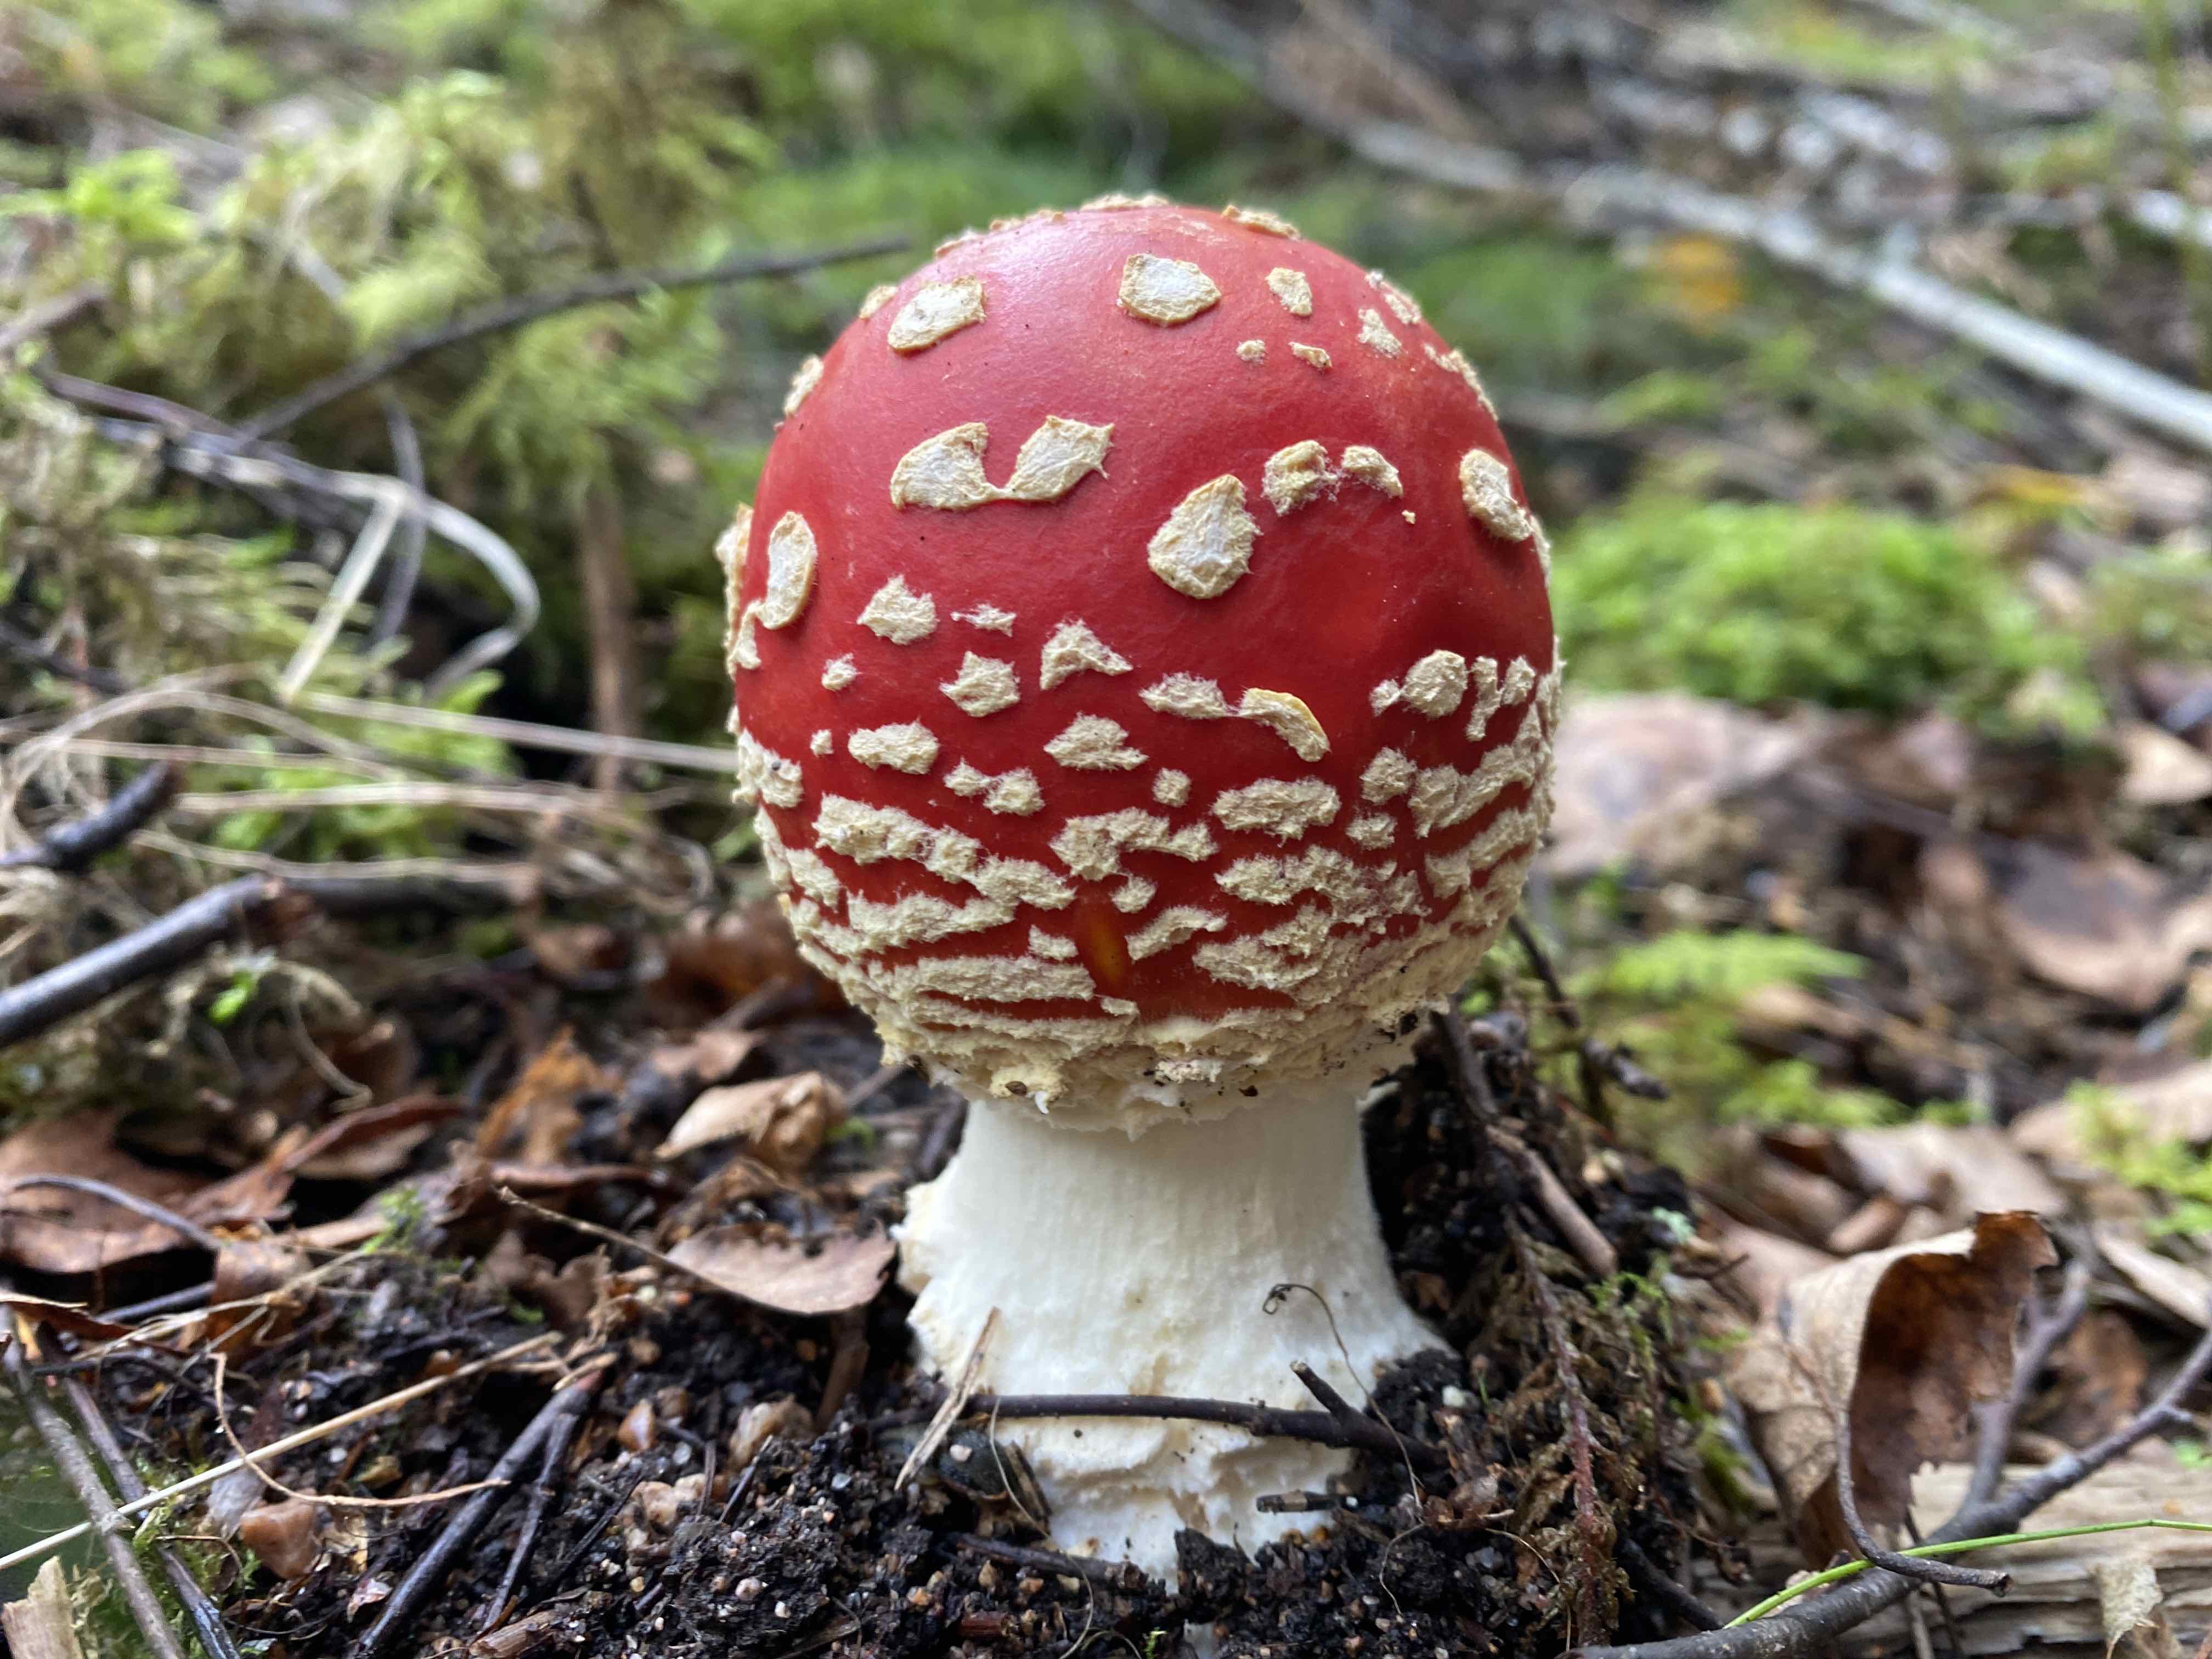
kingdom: Fungi
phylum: Basidiomycota
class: Agaricomycetes
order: Agaricales
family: Amanitaceae
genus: Amanita
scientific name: Amanita muscaria
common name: rød fluesvamp
